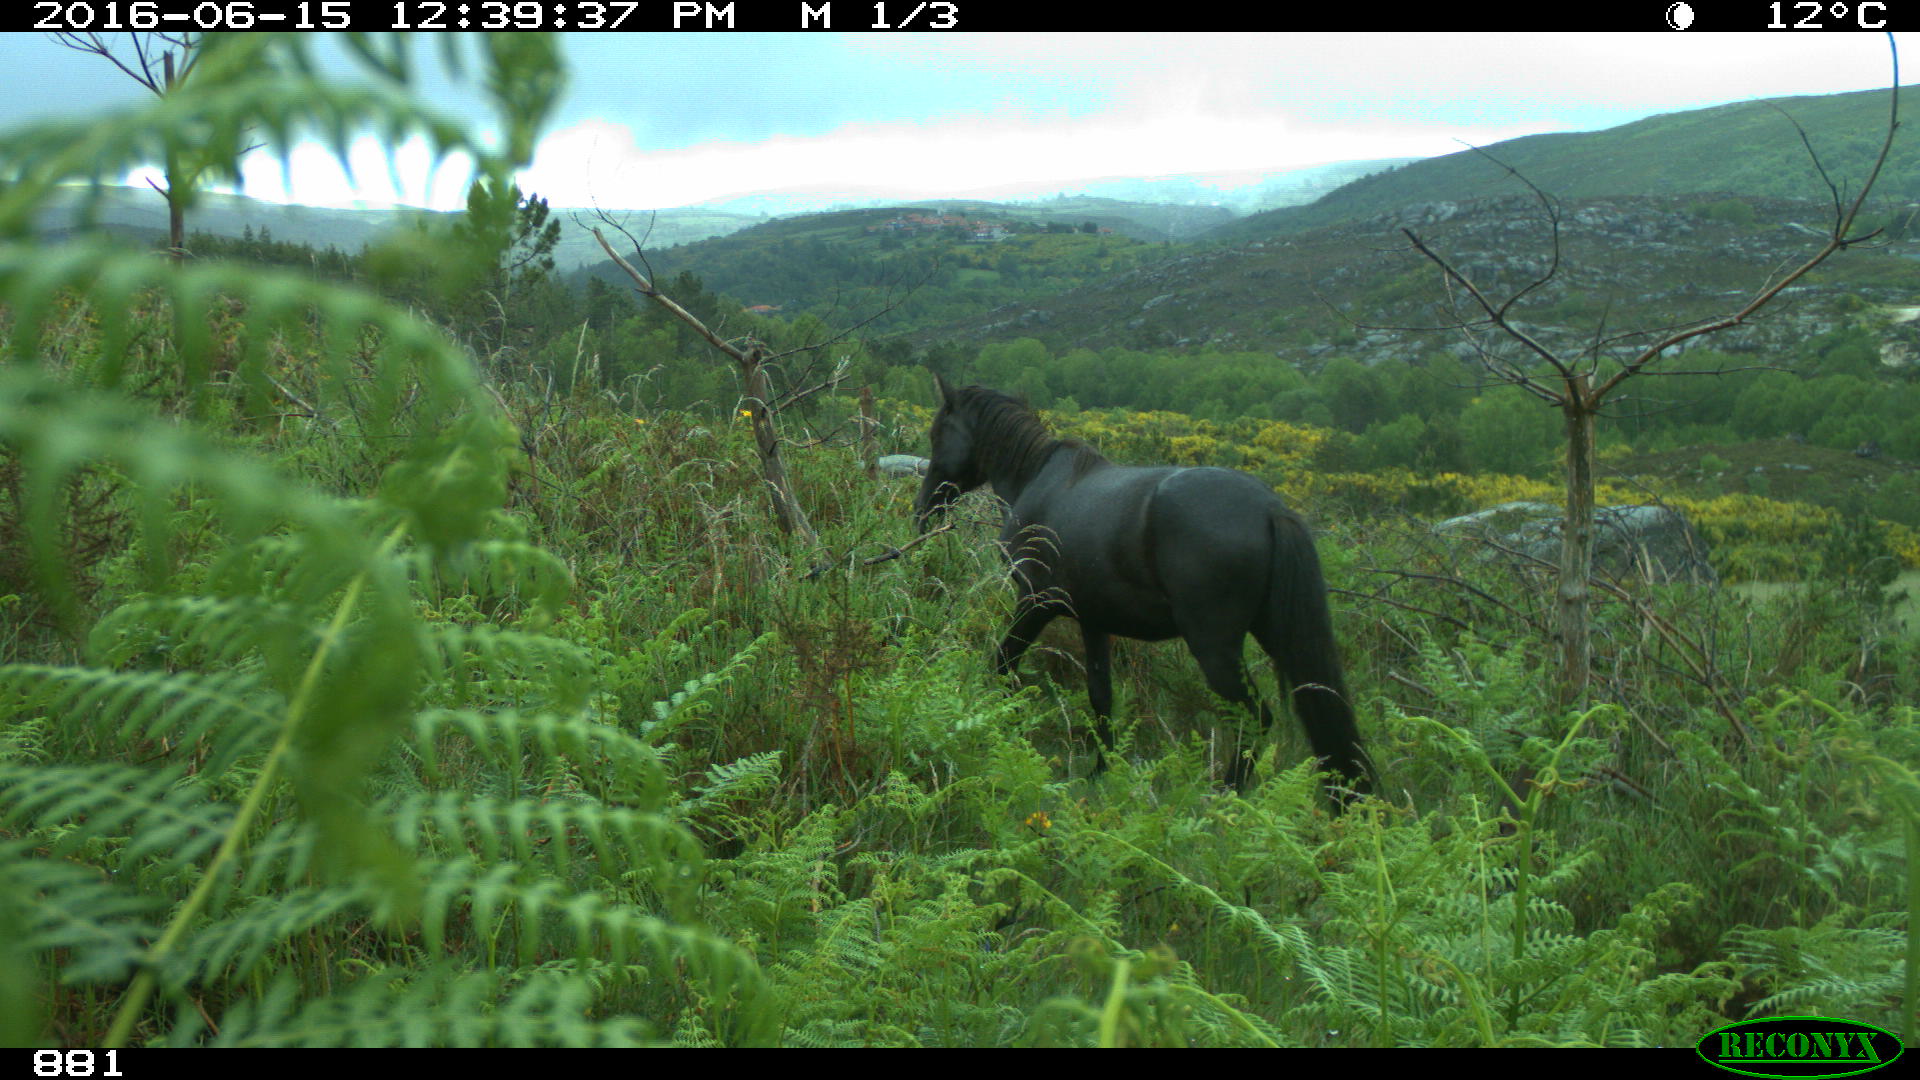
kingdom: Animalia
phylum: Chordata
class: Mammalia
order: Perissodactyla
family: Equidae
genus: Equus
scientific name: Equus caballus
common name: Horse
